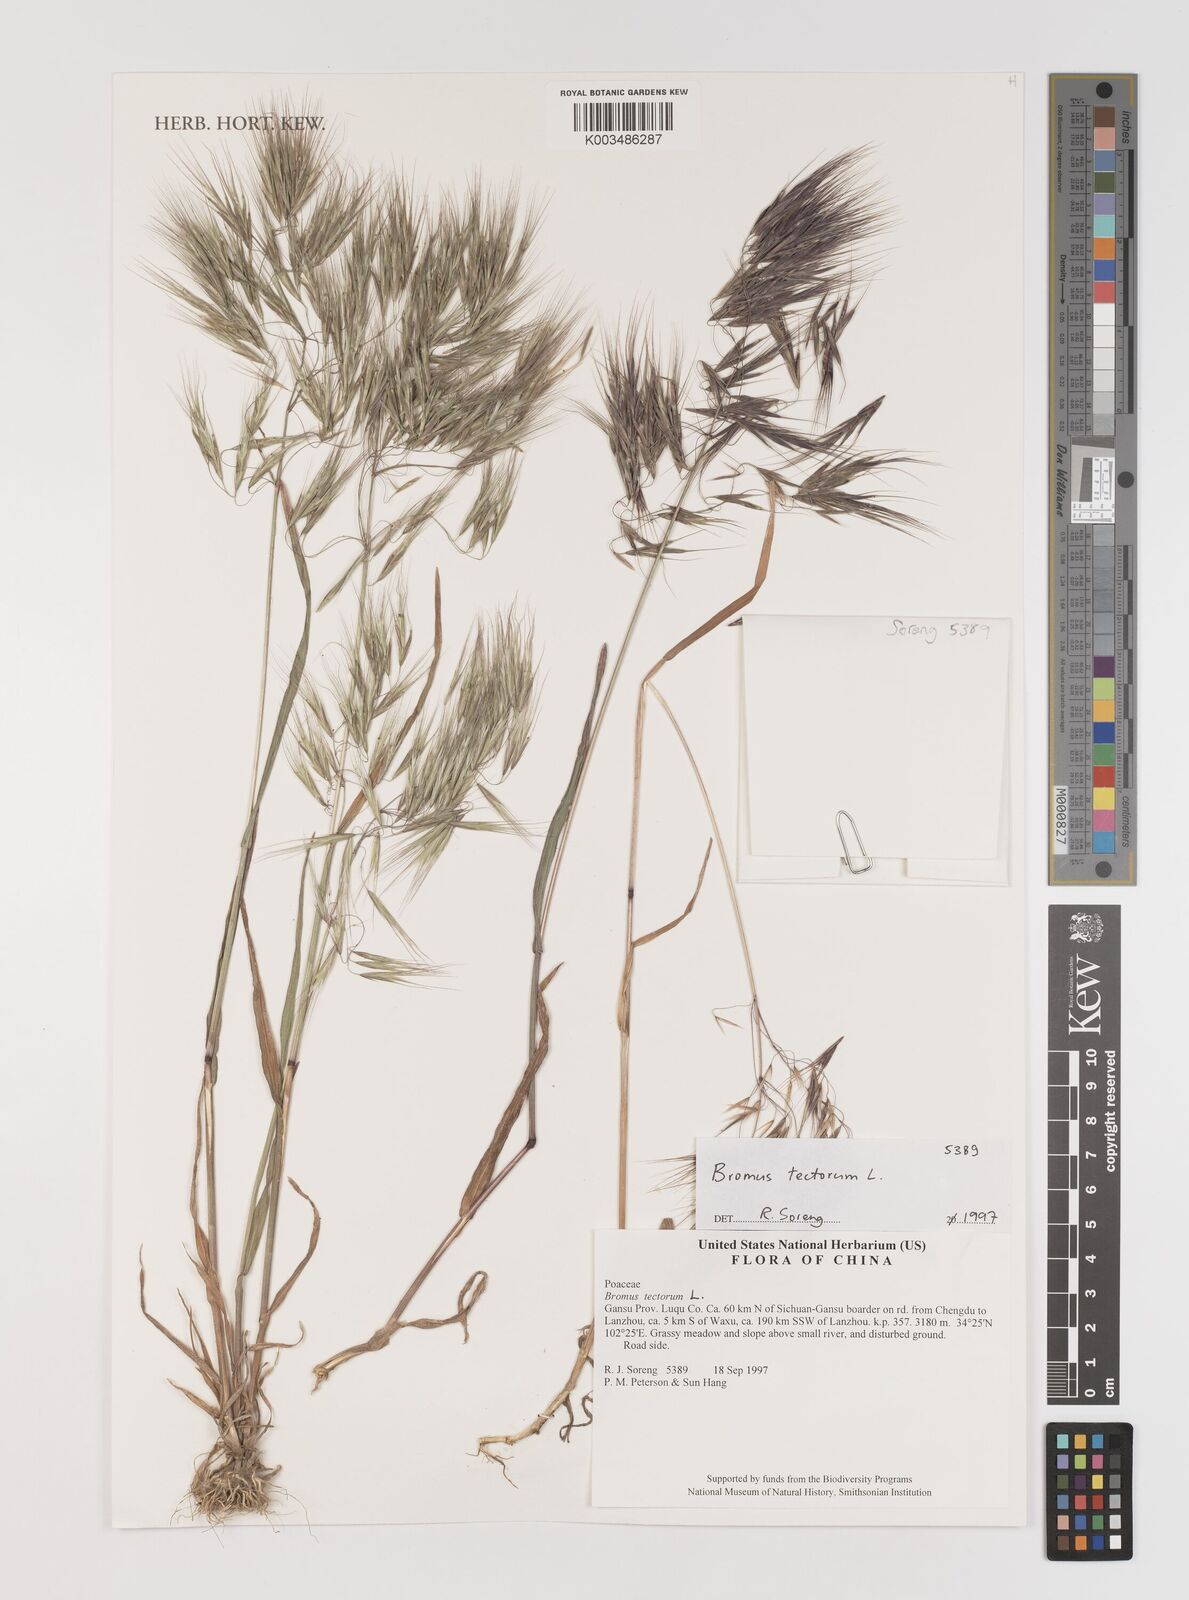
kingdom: Plantae
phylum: Tracheophyta
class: Liliopsida
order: Poales
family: Poaceae
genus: Bromus
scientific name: Bromus tectorum
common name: Cheatgrass
